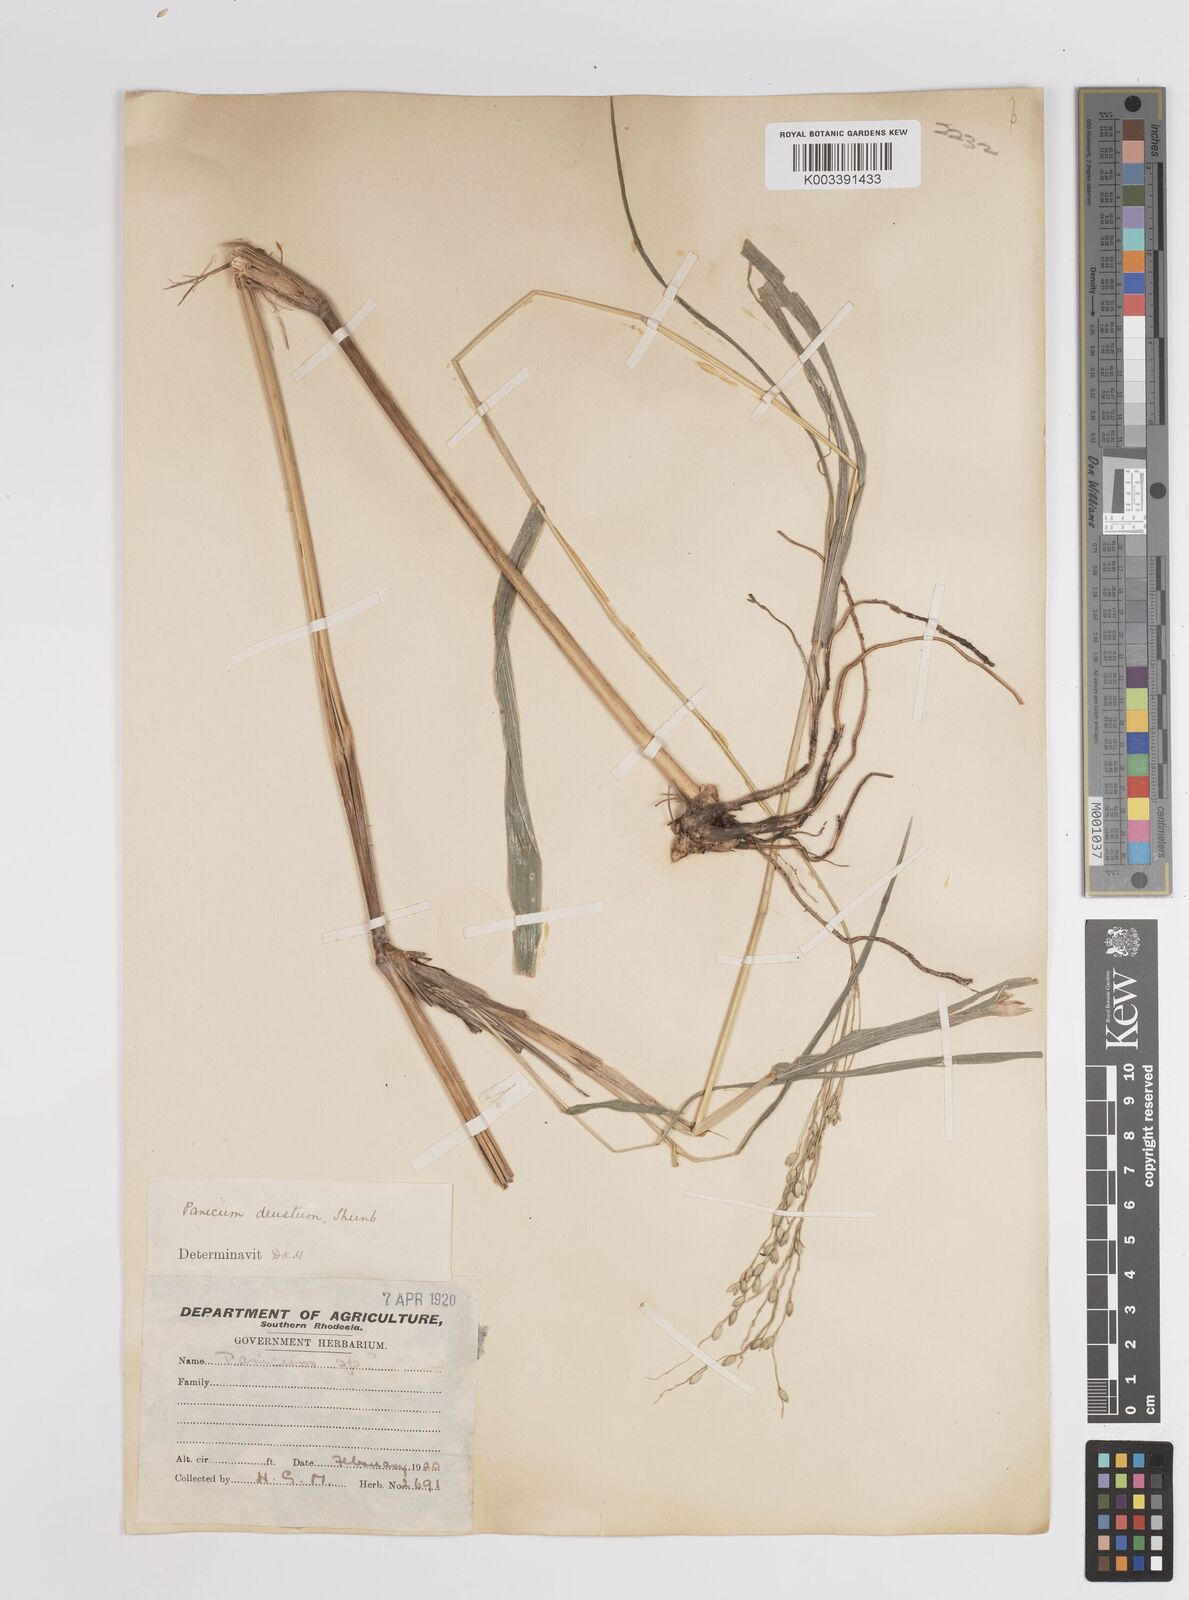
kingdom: Plantae
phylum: Tracheophyta
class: Liliopsida
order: Poales
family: Poaceae
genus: Panicum
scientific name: Panicum deustum
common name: Reed panicum
